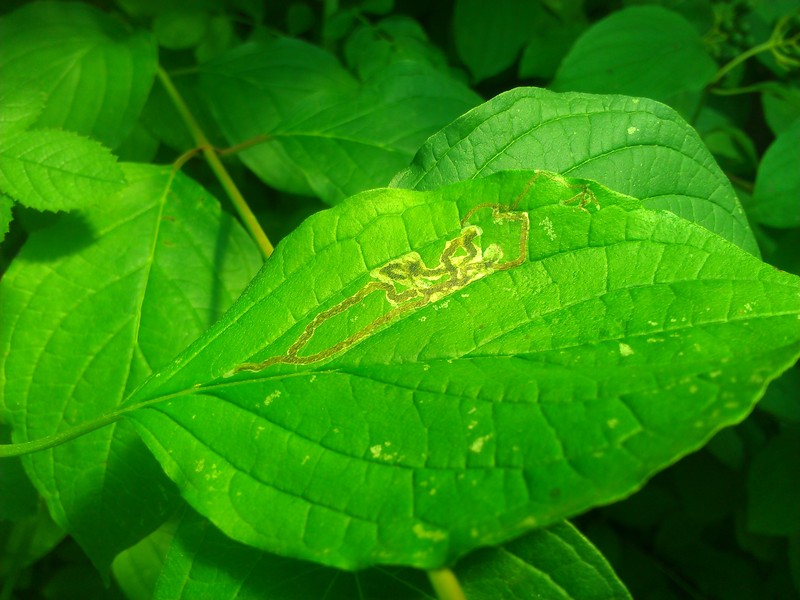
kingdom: Animalia
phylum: Arthropoda
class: Insecta
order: Diptera
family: Agromyzidae
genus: Phytomyza
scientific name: Phytomyza agromyzina
